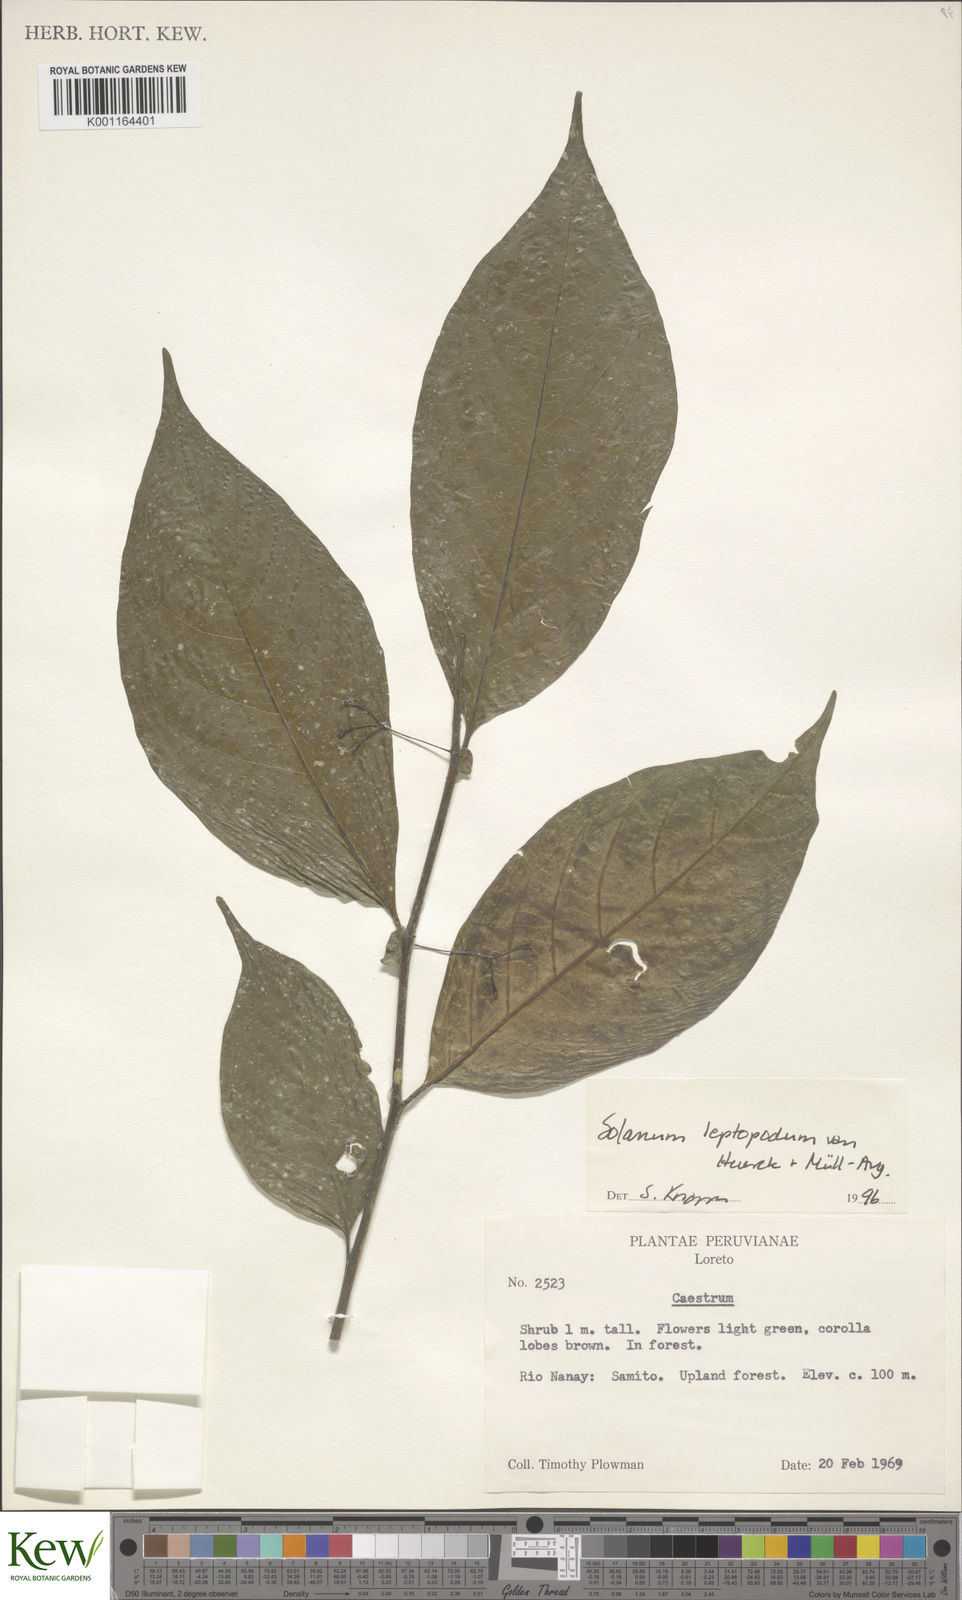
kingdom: Plantae
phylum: Tracheophyta
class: Magnoliopsida
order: Solanales
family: Solanaceae
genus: Solanum
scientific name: Solanum leptopodum
